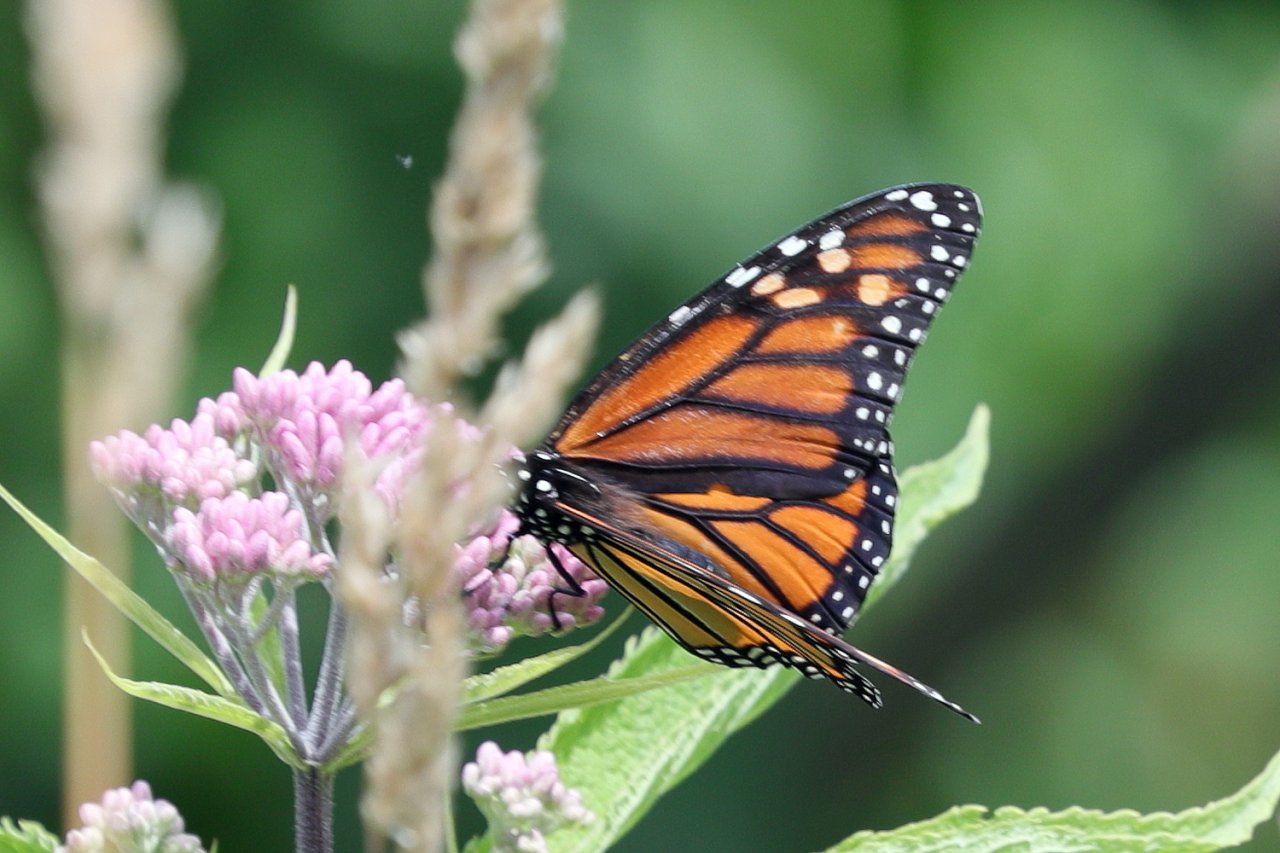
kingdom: Animalia
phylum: Arthropoda
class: Insecta
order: Lepidoptera
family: Nymphalidae
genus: Danaus
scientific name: Danaus plexippus
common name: Monarch
